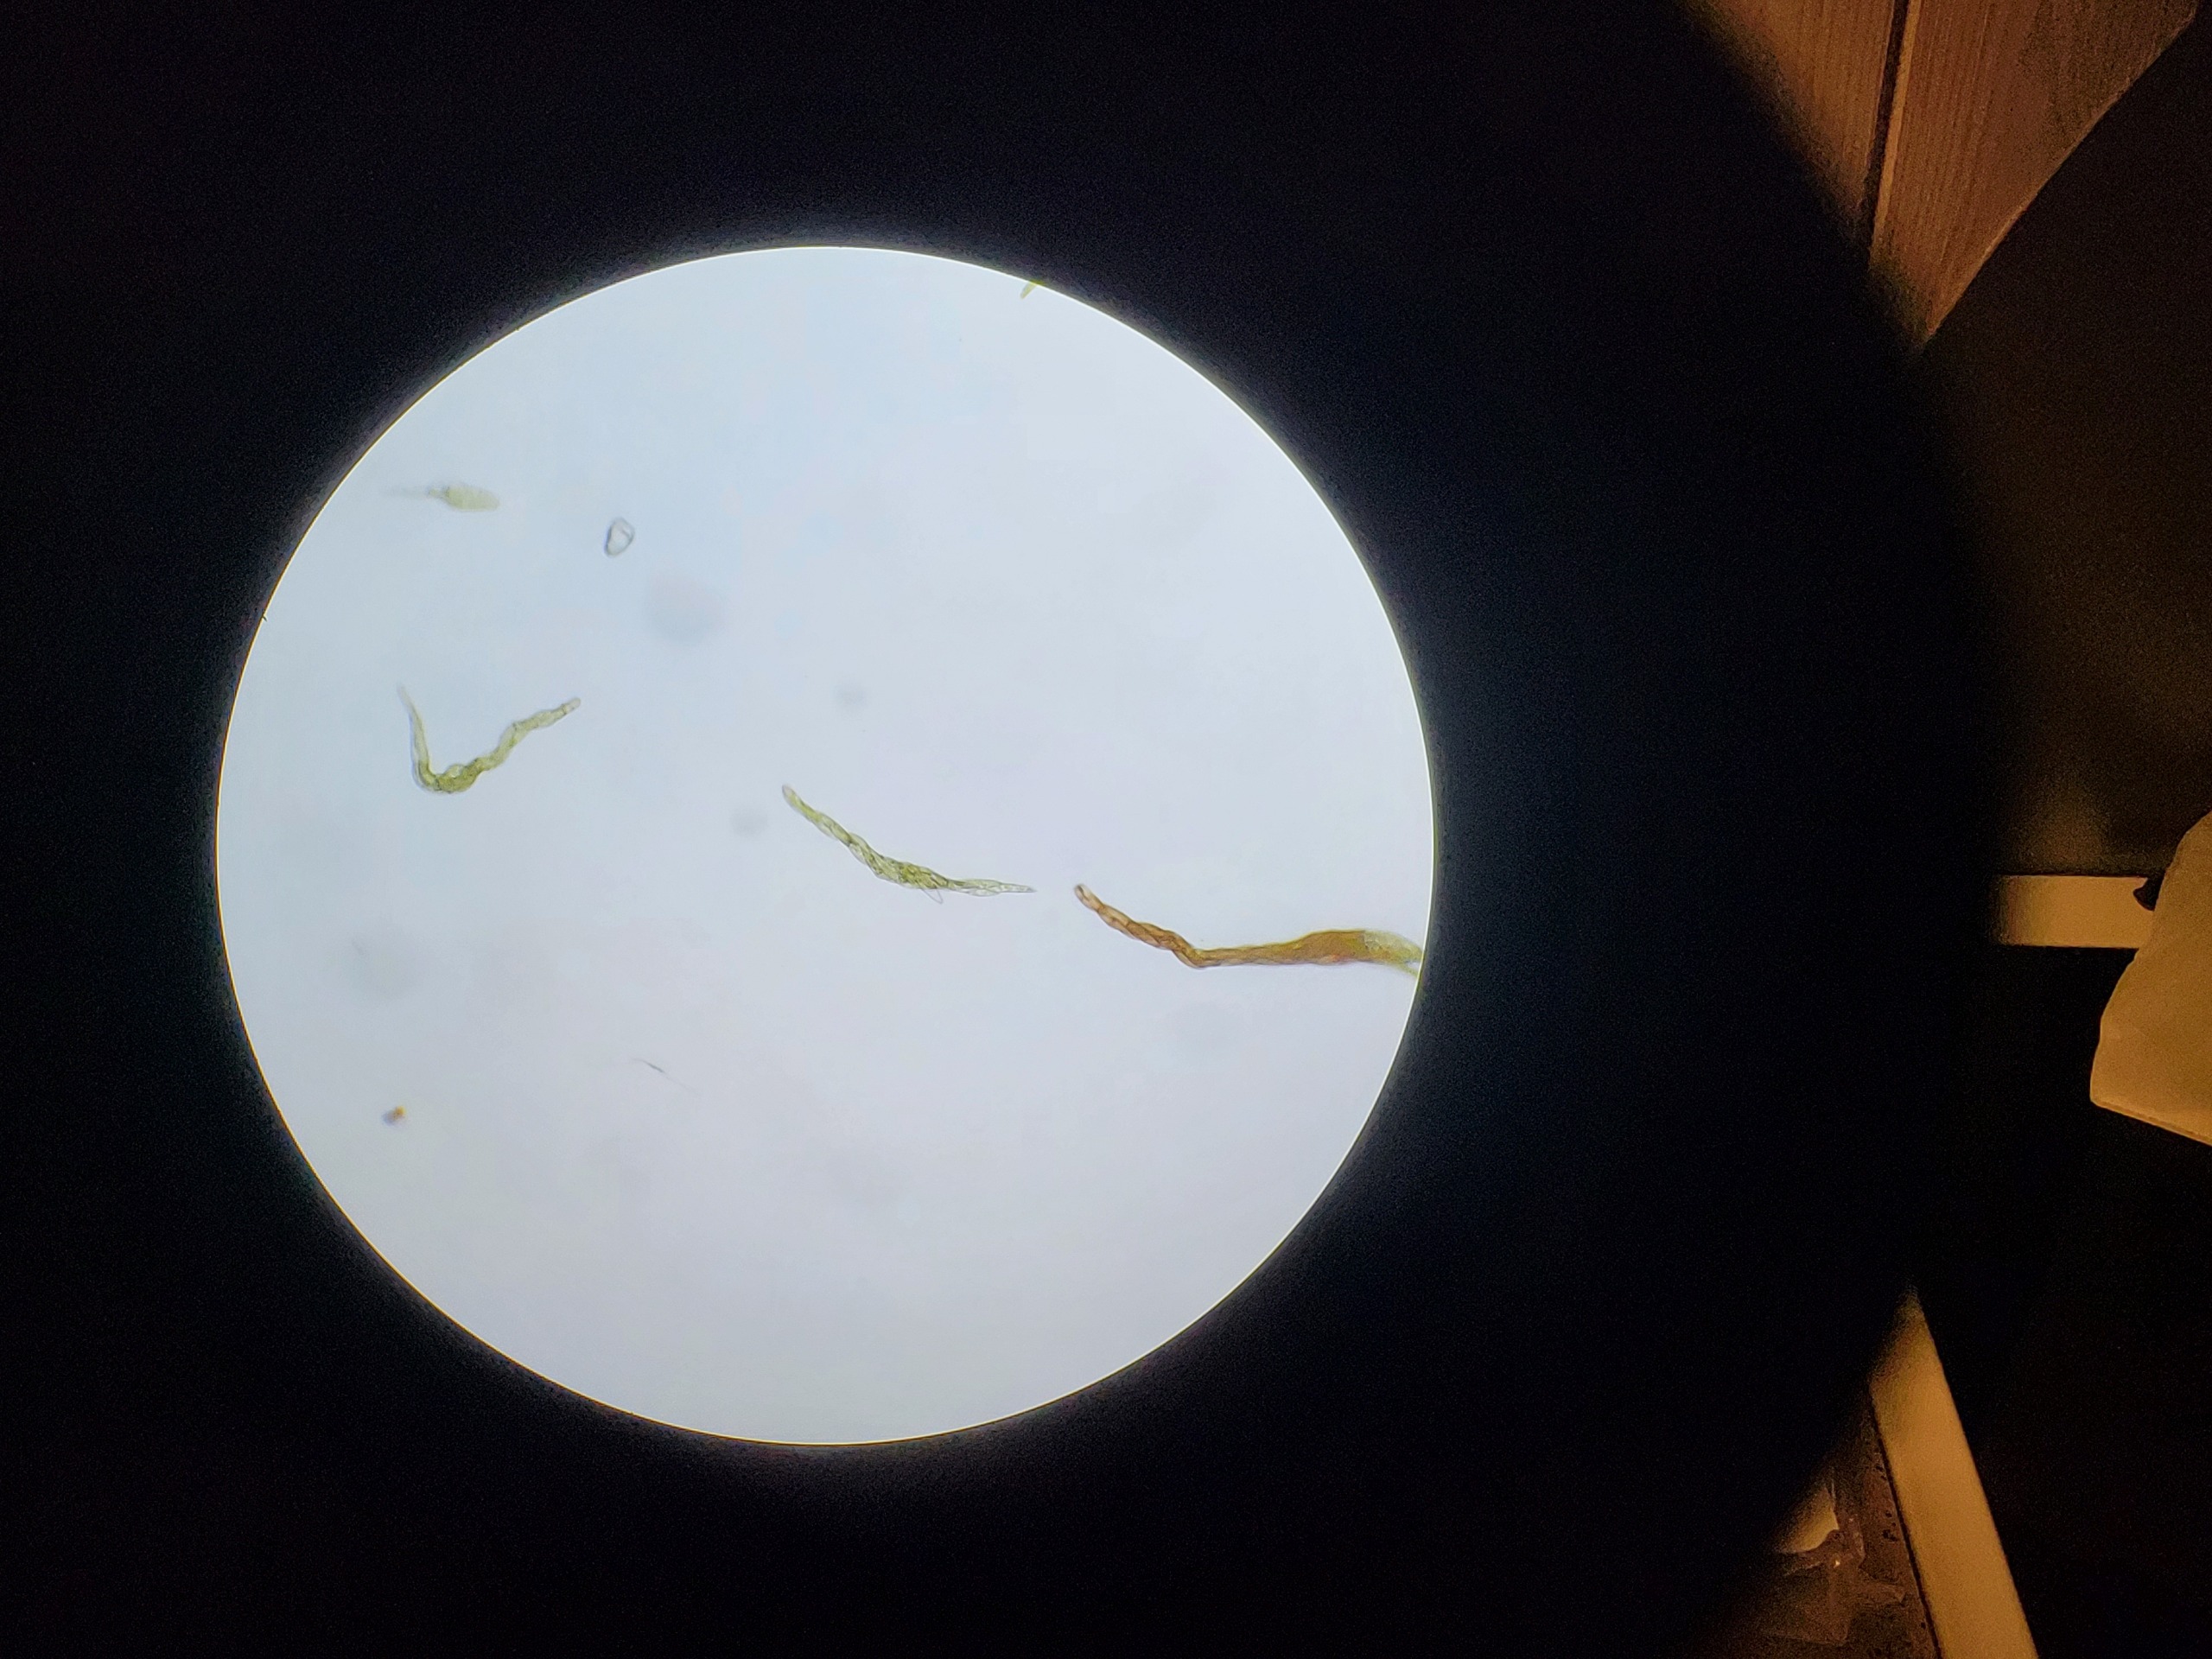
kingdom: Plantae
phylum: Bryophyta
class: Bryopsida
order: Bryales
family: Mniaceae
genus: Pohlia
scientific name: Pohlia proligera
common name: Snoet nikkemos
